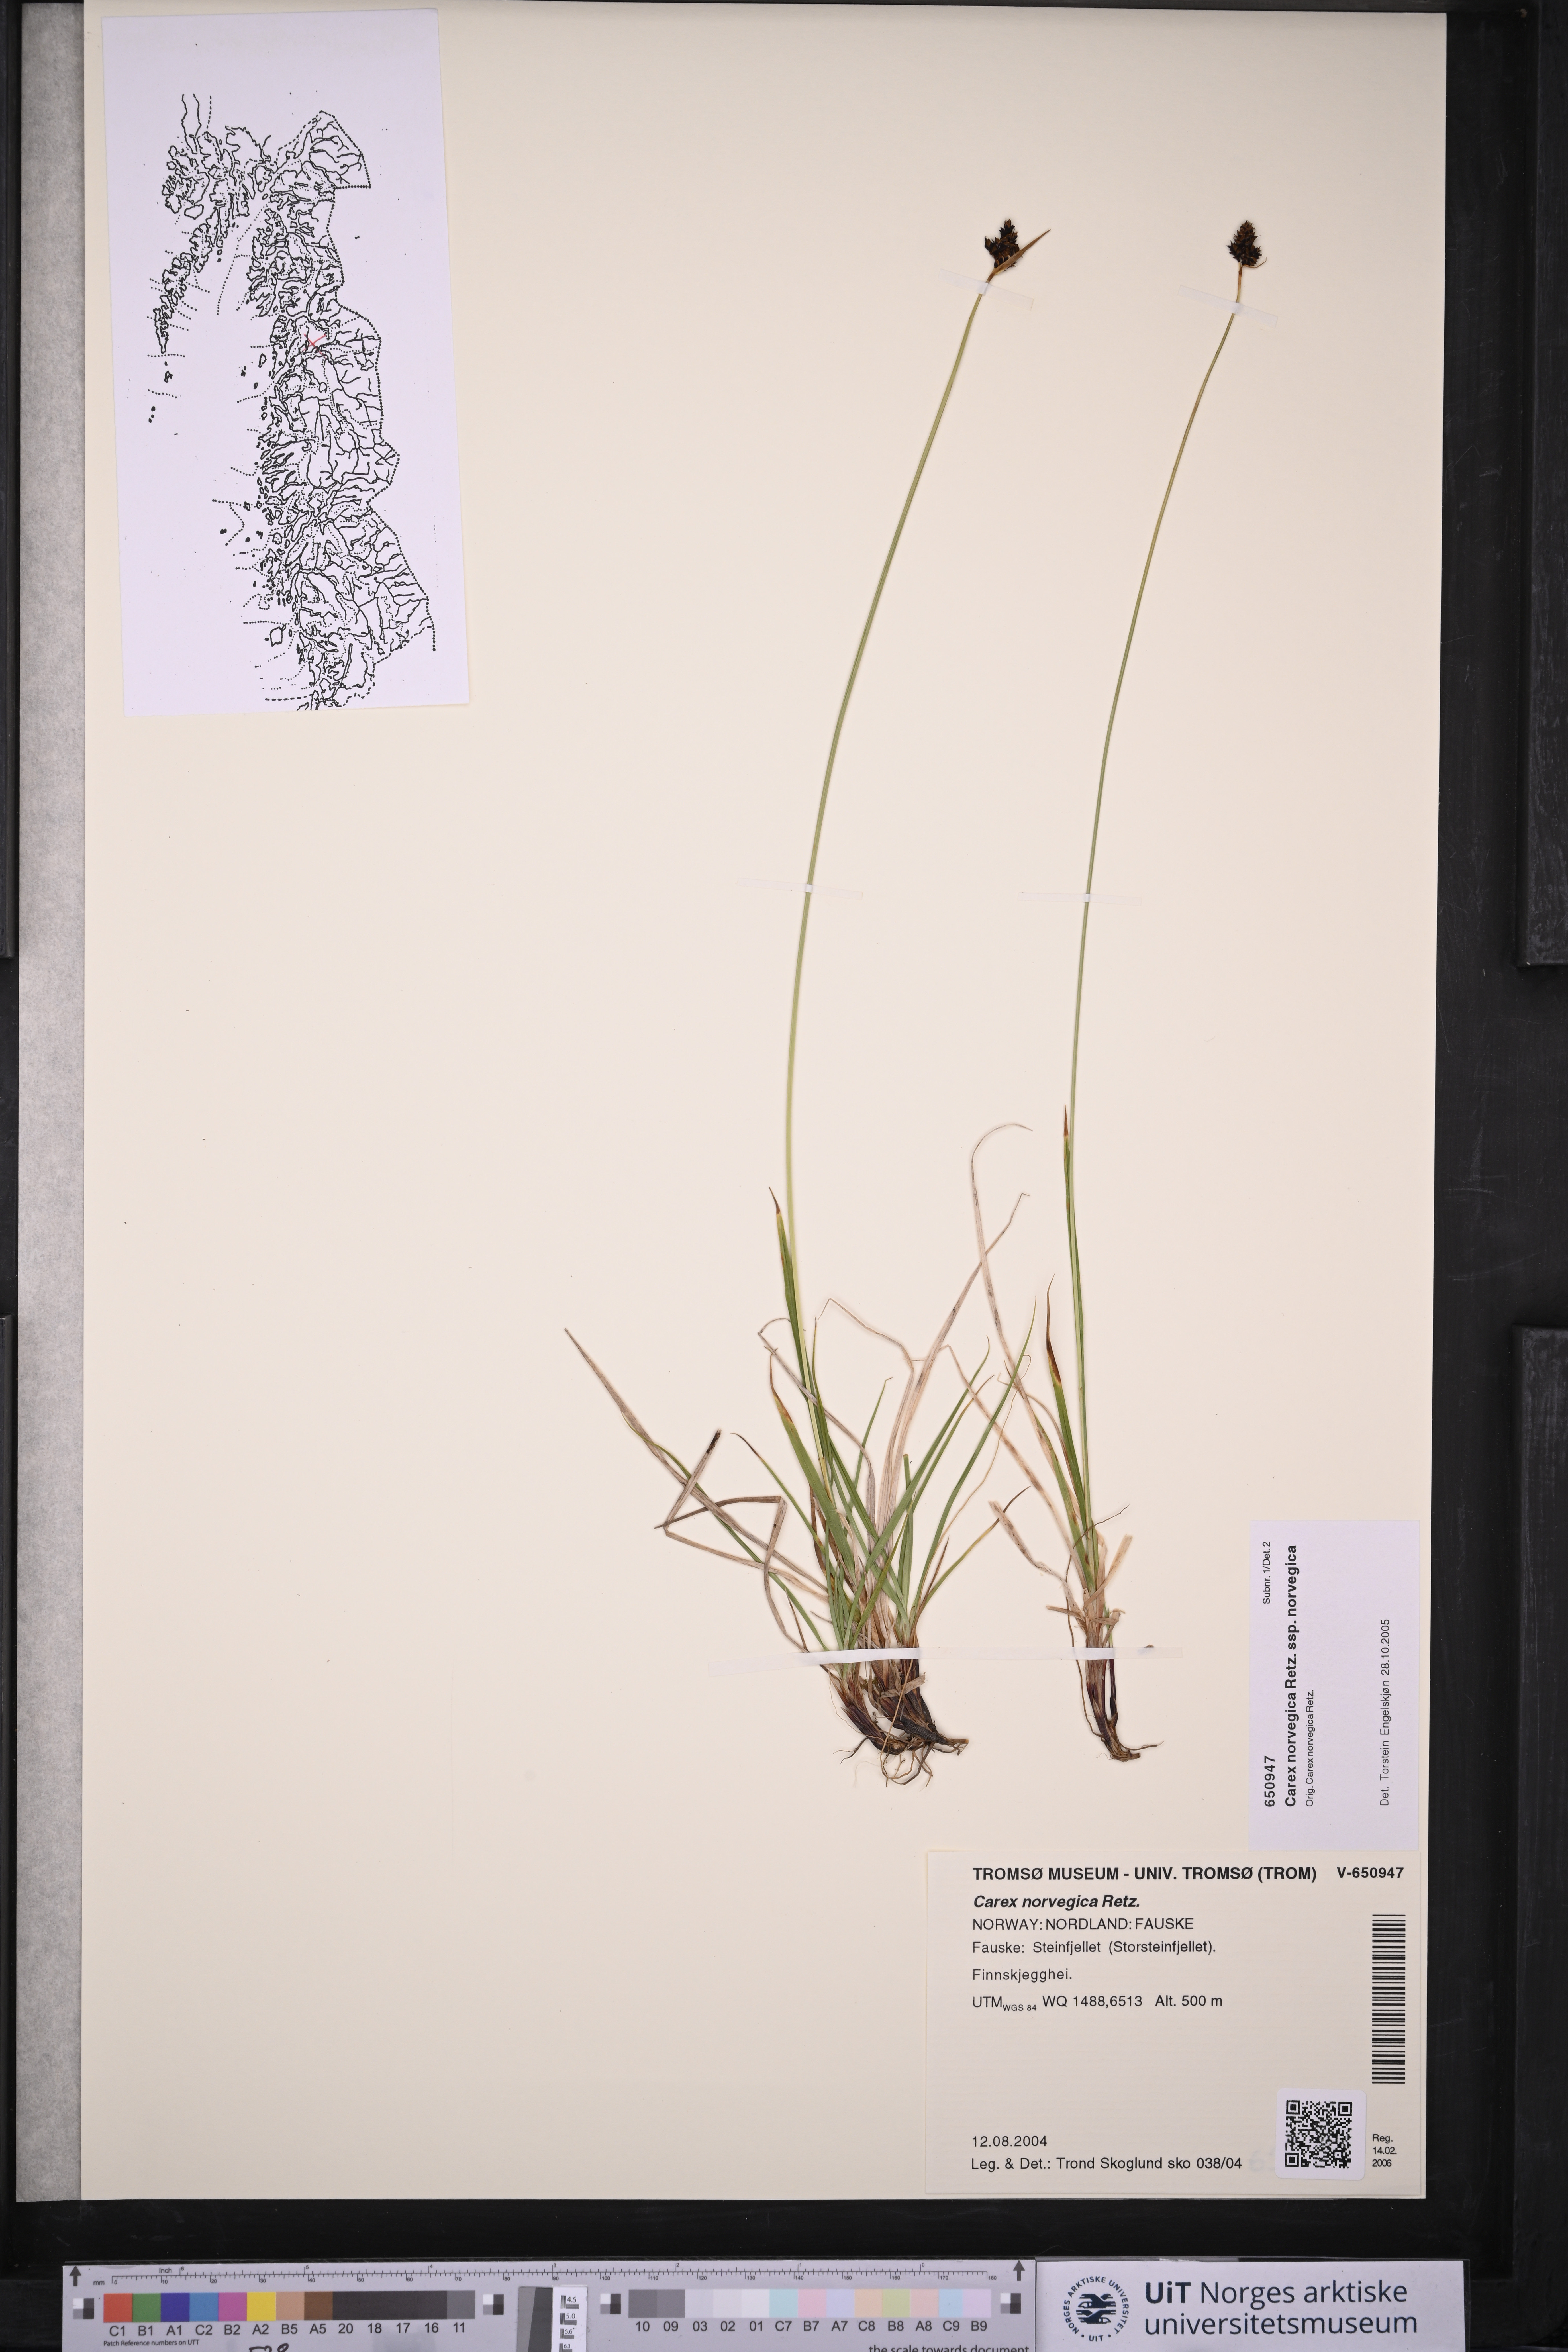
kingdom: Plantae
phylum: Tracheophyta
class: Liliopsida
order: Poales
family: Cyperaceae
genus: Carex
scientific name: Carex norvegica
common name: Close-headed alpine-sedge
